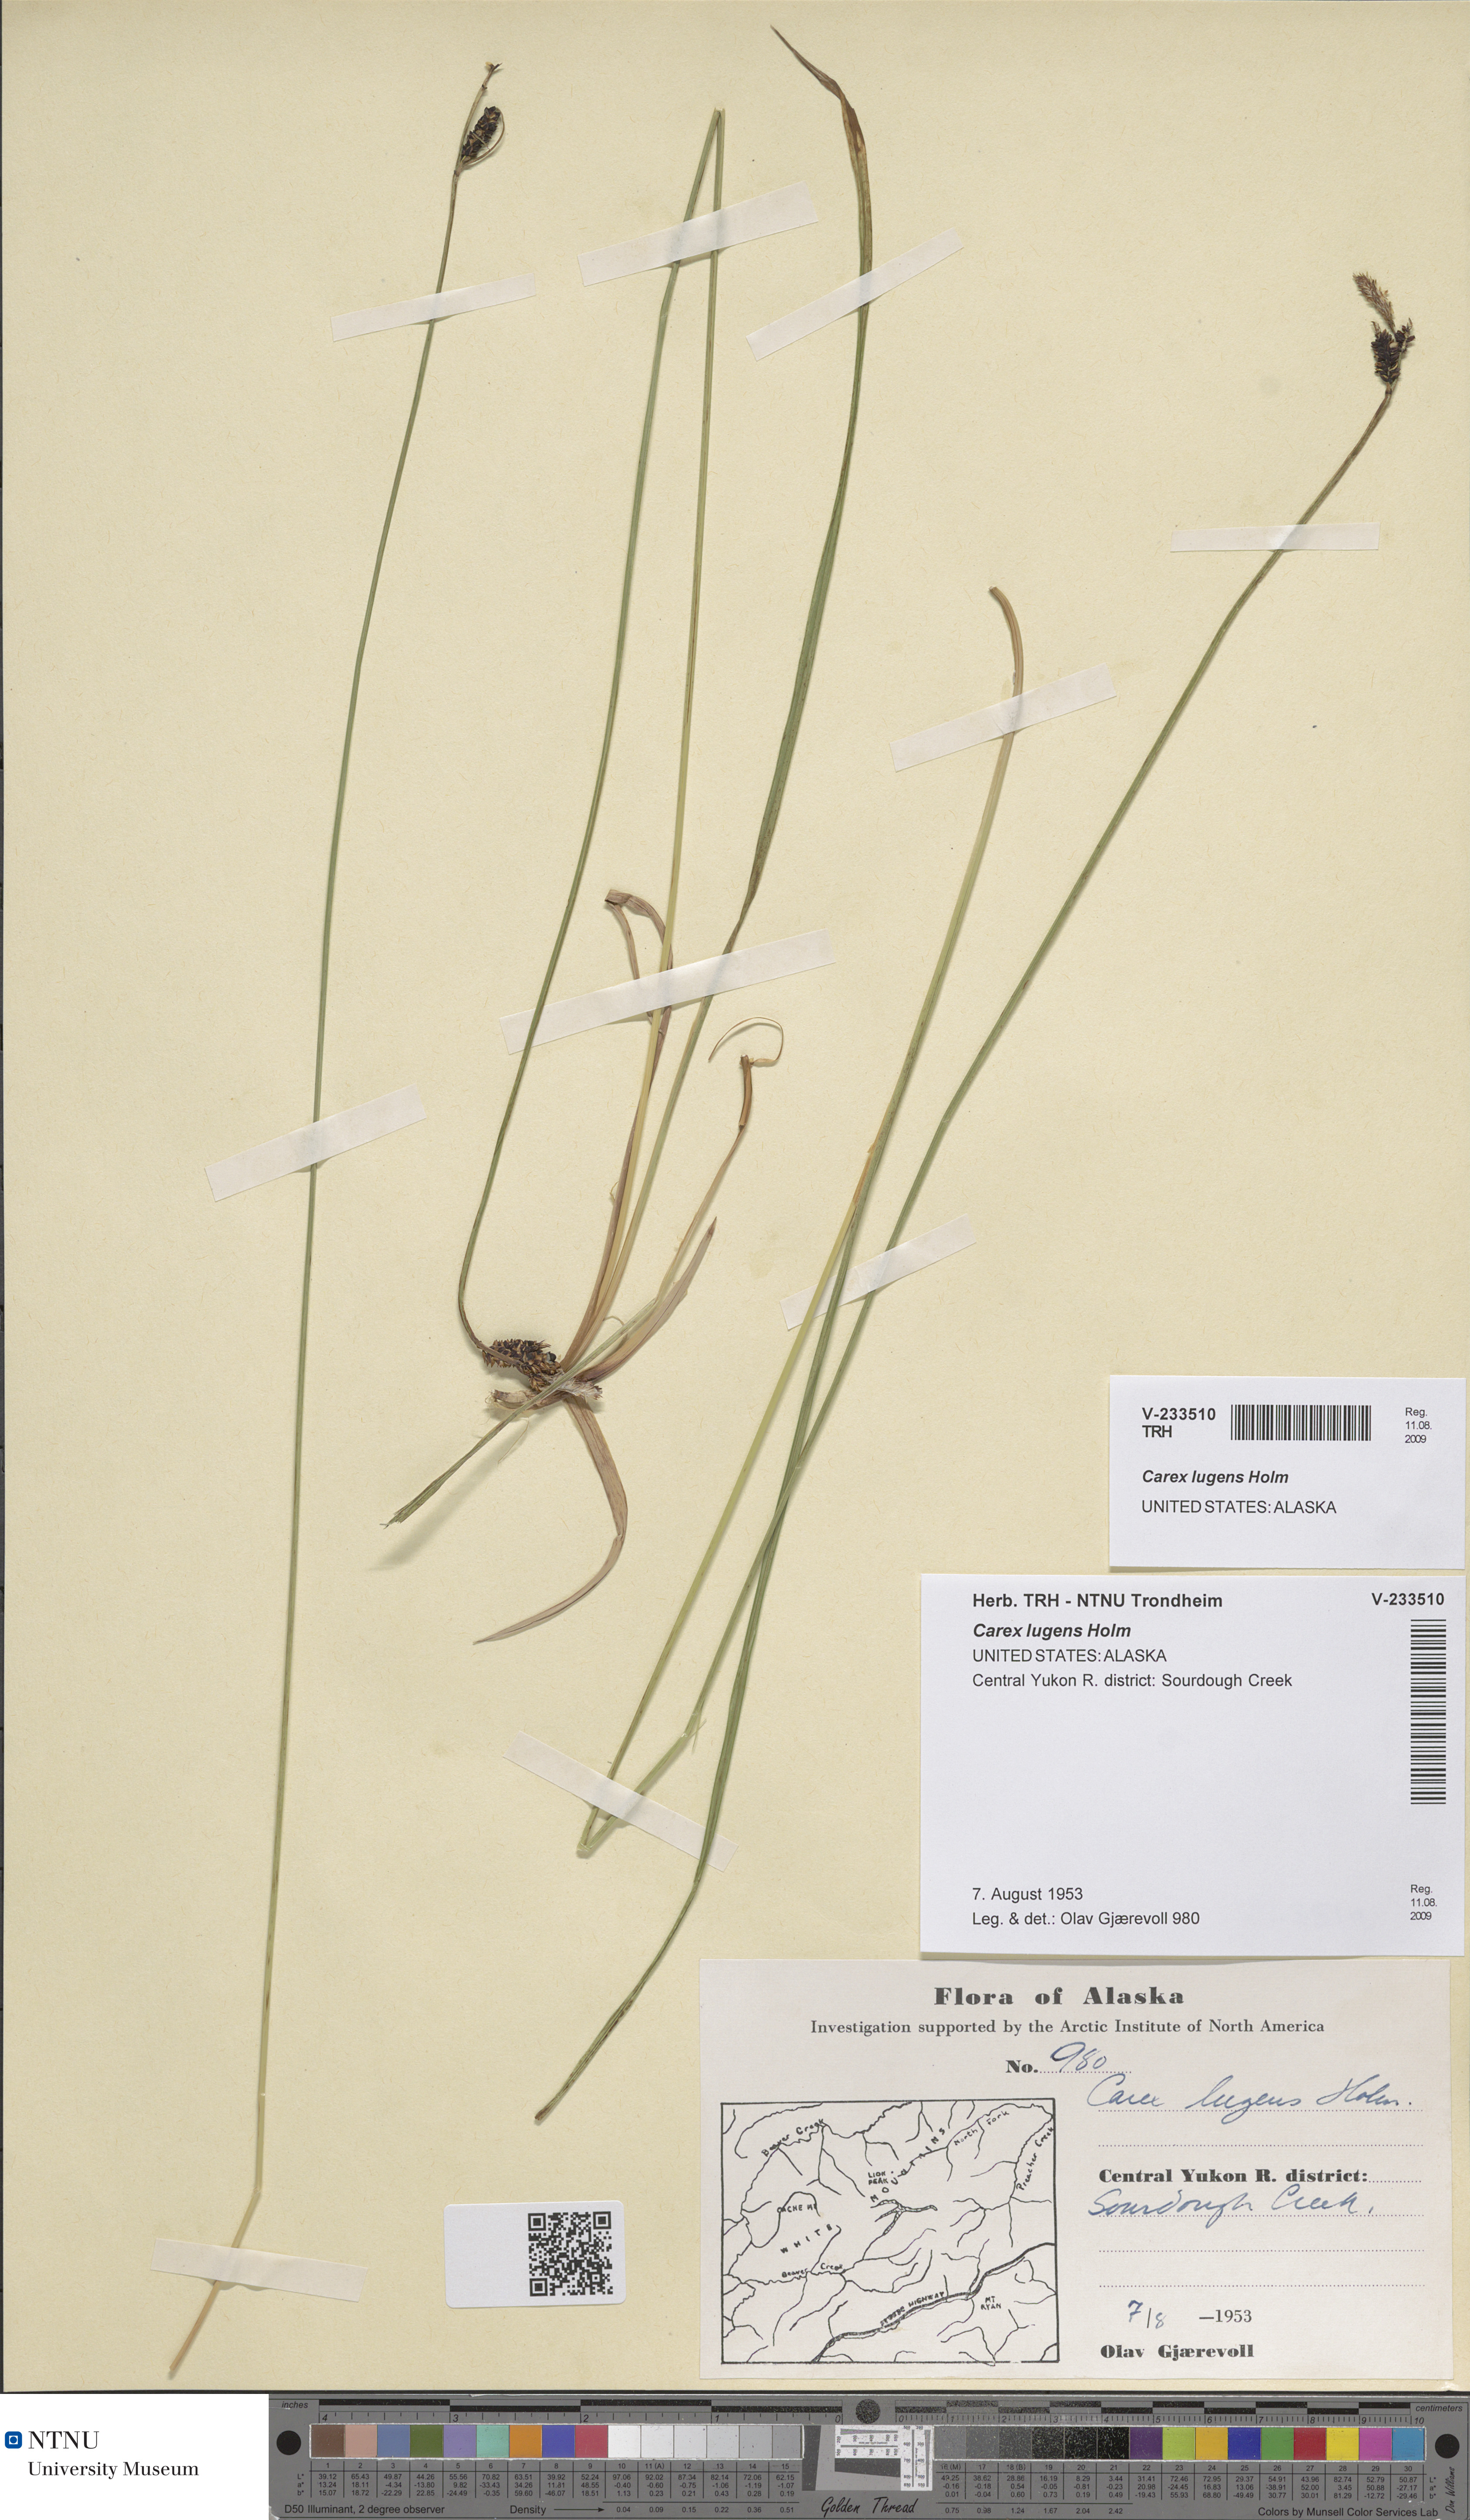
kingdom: Plantae
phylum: Tracheophyta
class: Liliopsida
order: Poales
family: Cyperaceae
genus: Carex
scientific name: Carex bigelowii
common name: Stiff sedge
